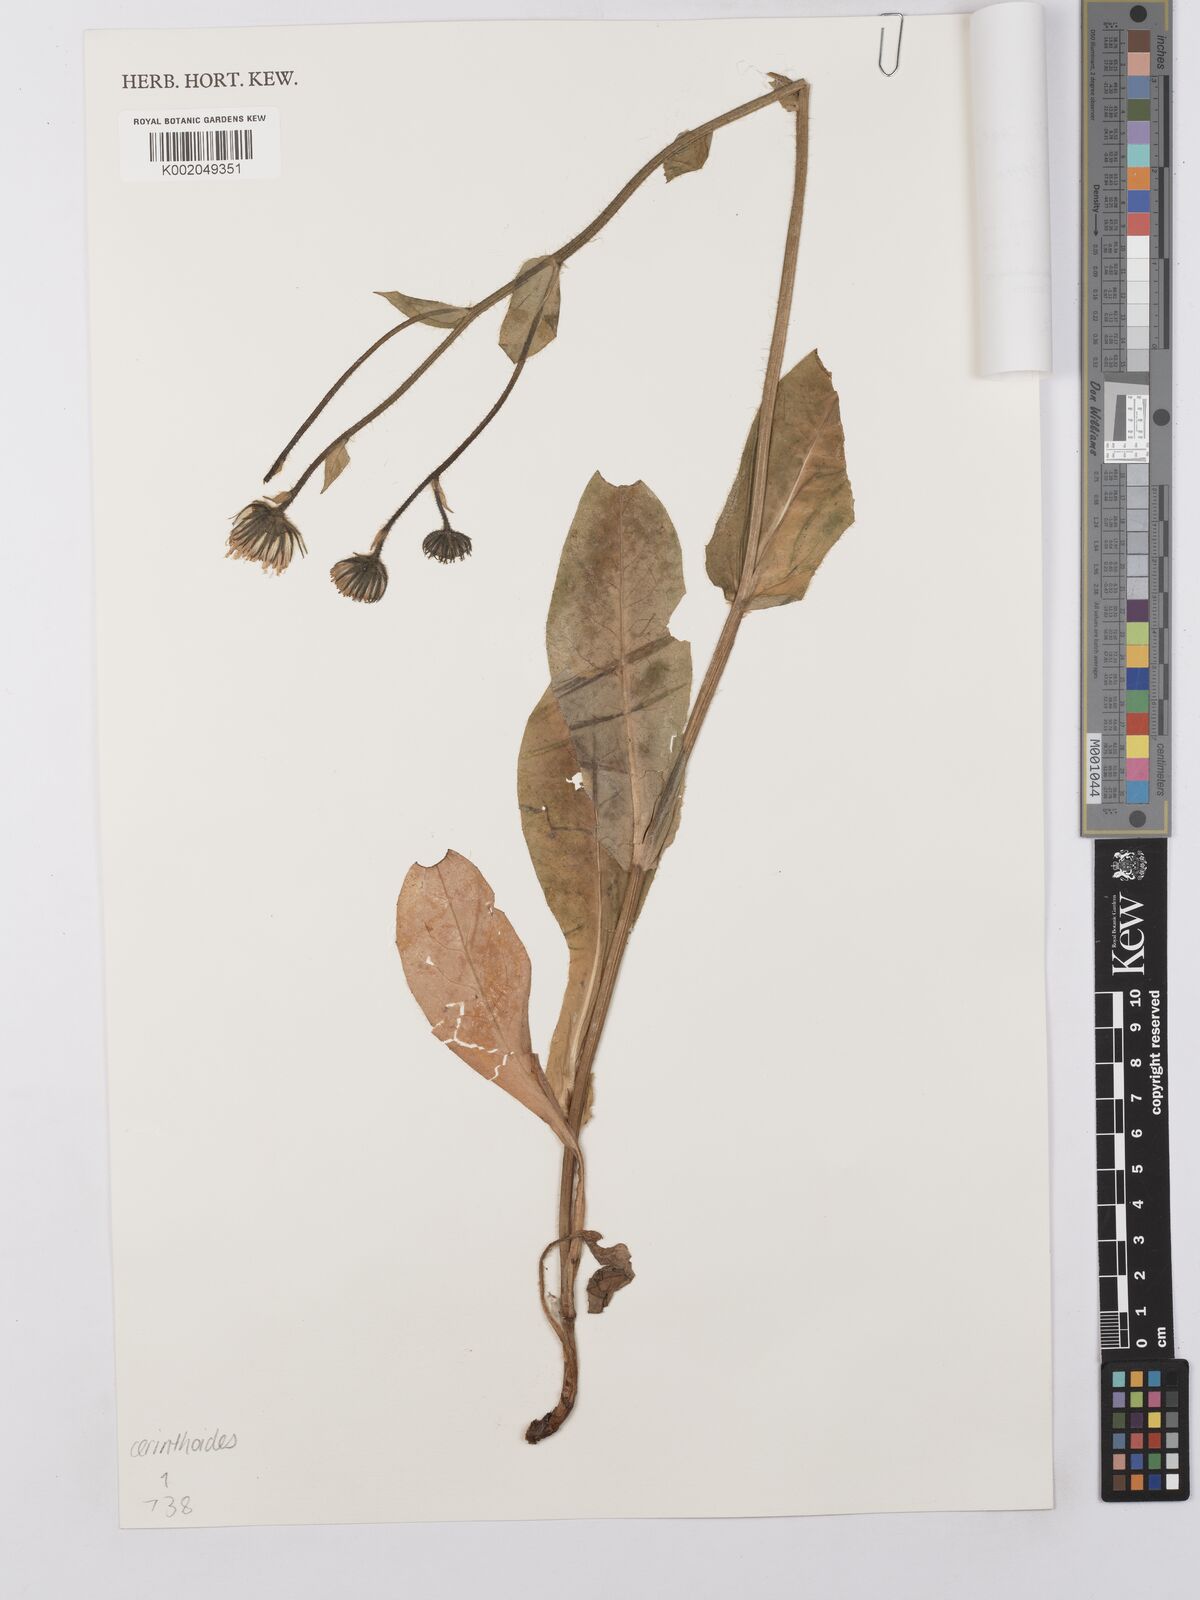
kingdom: Plantae
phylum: Tracheophyta
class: Magnoliopsida
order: Asterales
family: Asteraceae
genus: Hieracium
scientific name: Hieracium cerinthoides
